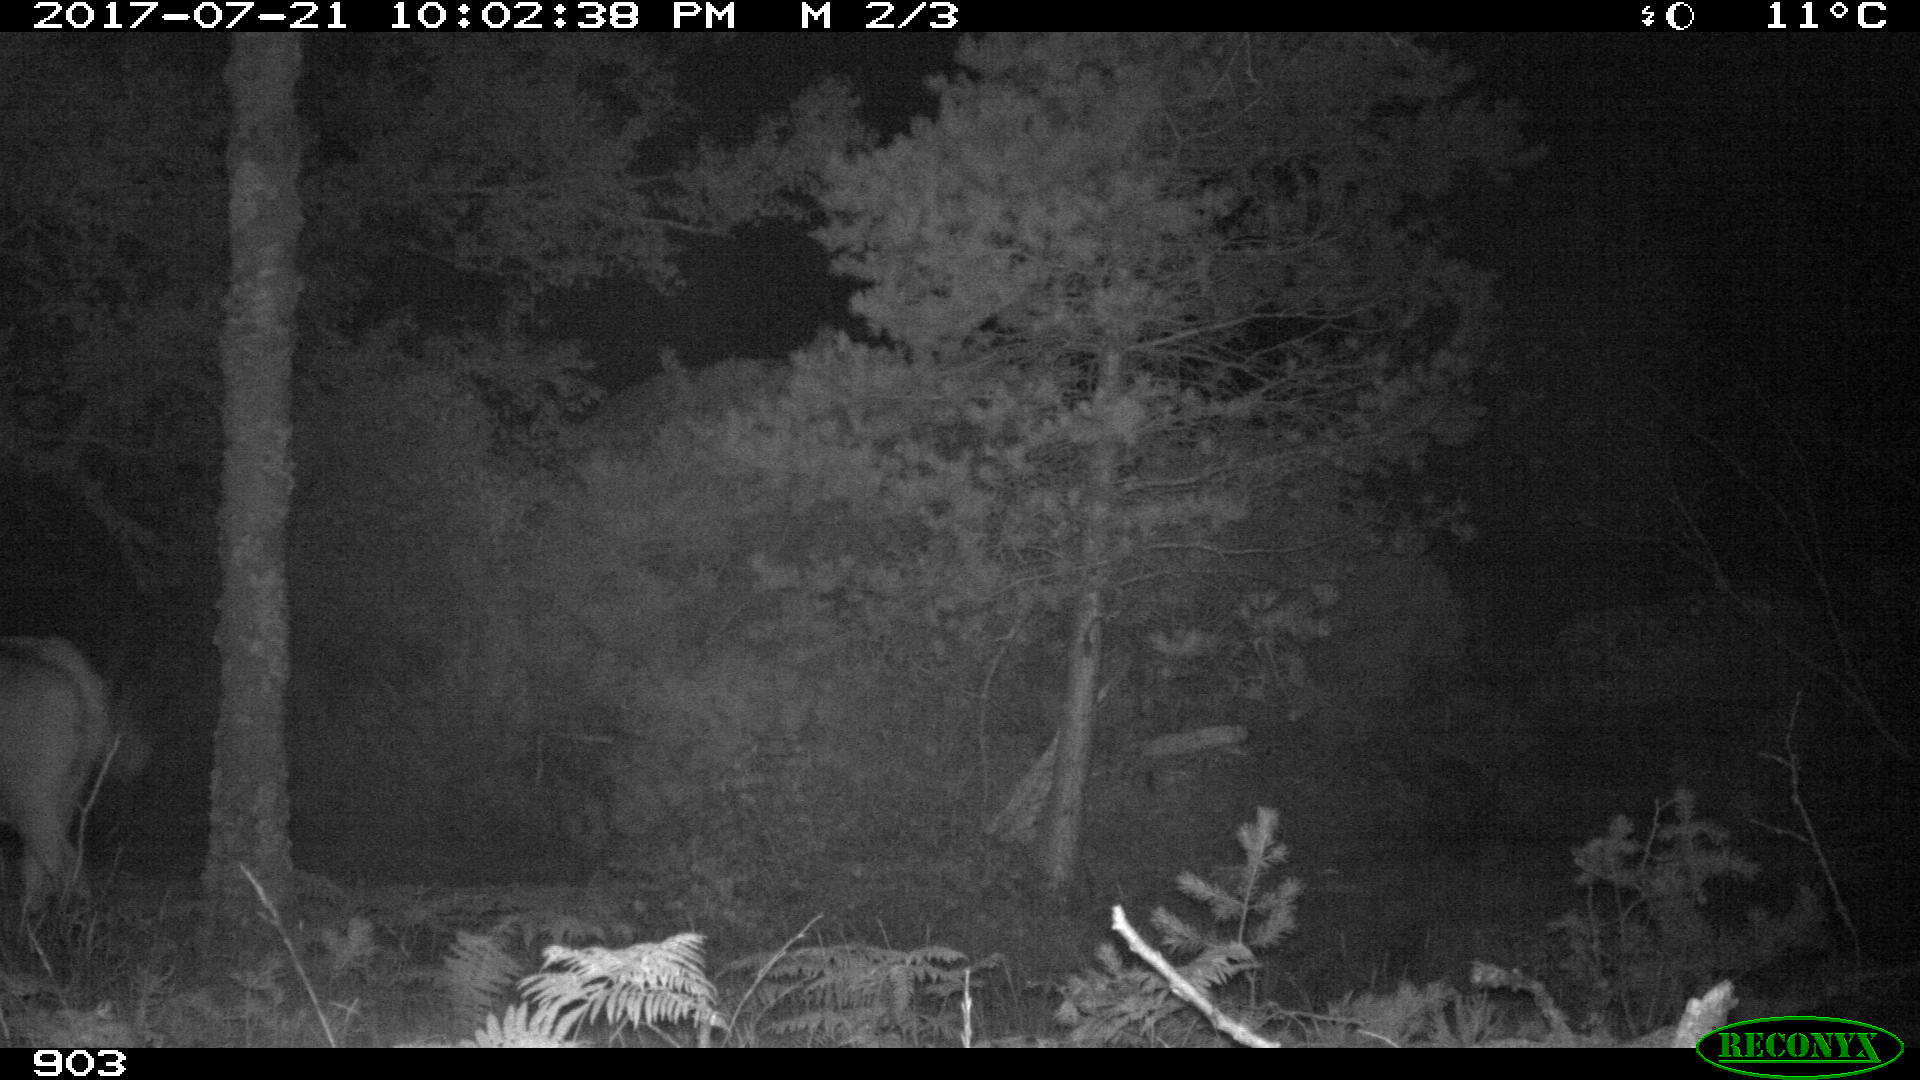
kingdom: Animalia
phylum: Chordata
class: Mammalia
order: Artiodactyla
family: Bovidae
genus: Bos
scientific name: Bos taurus
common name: Domesticated cattle
